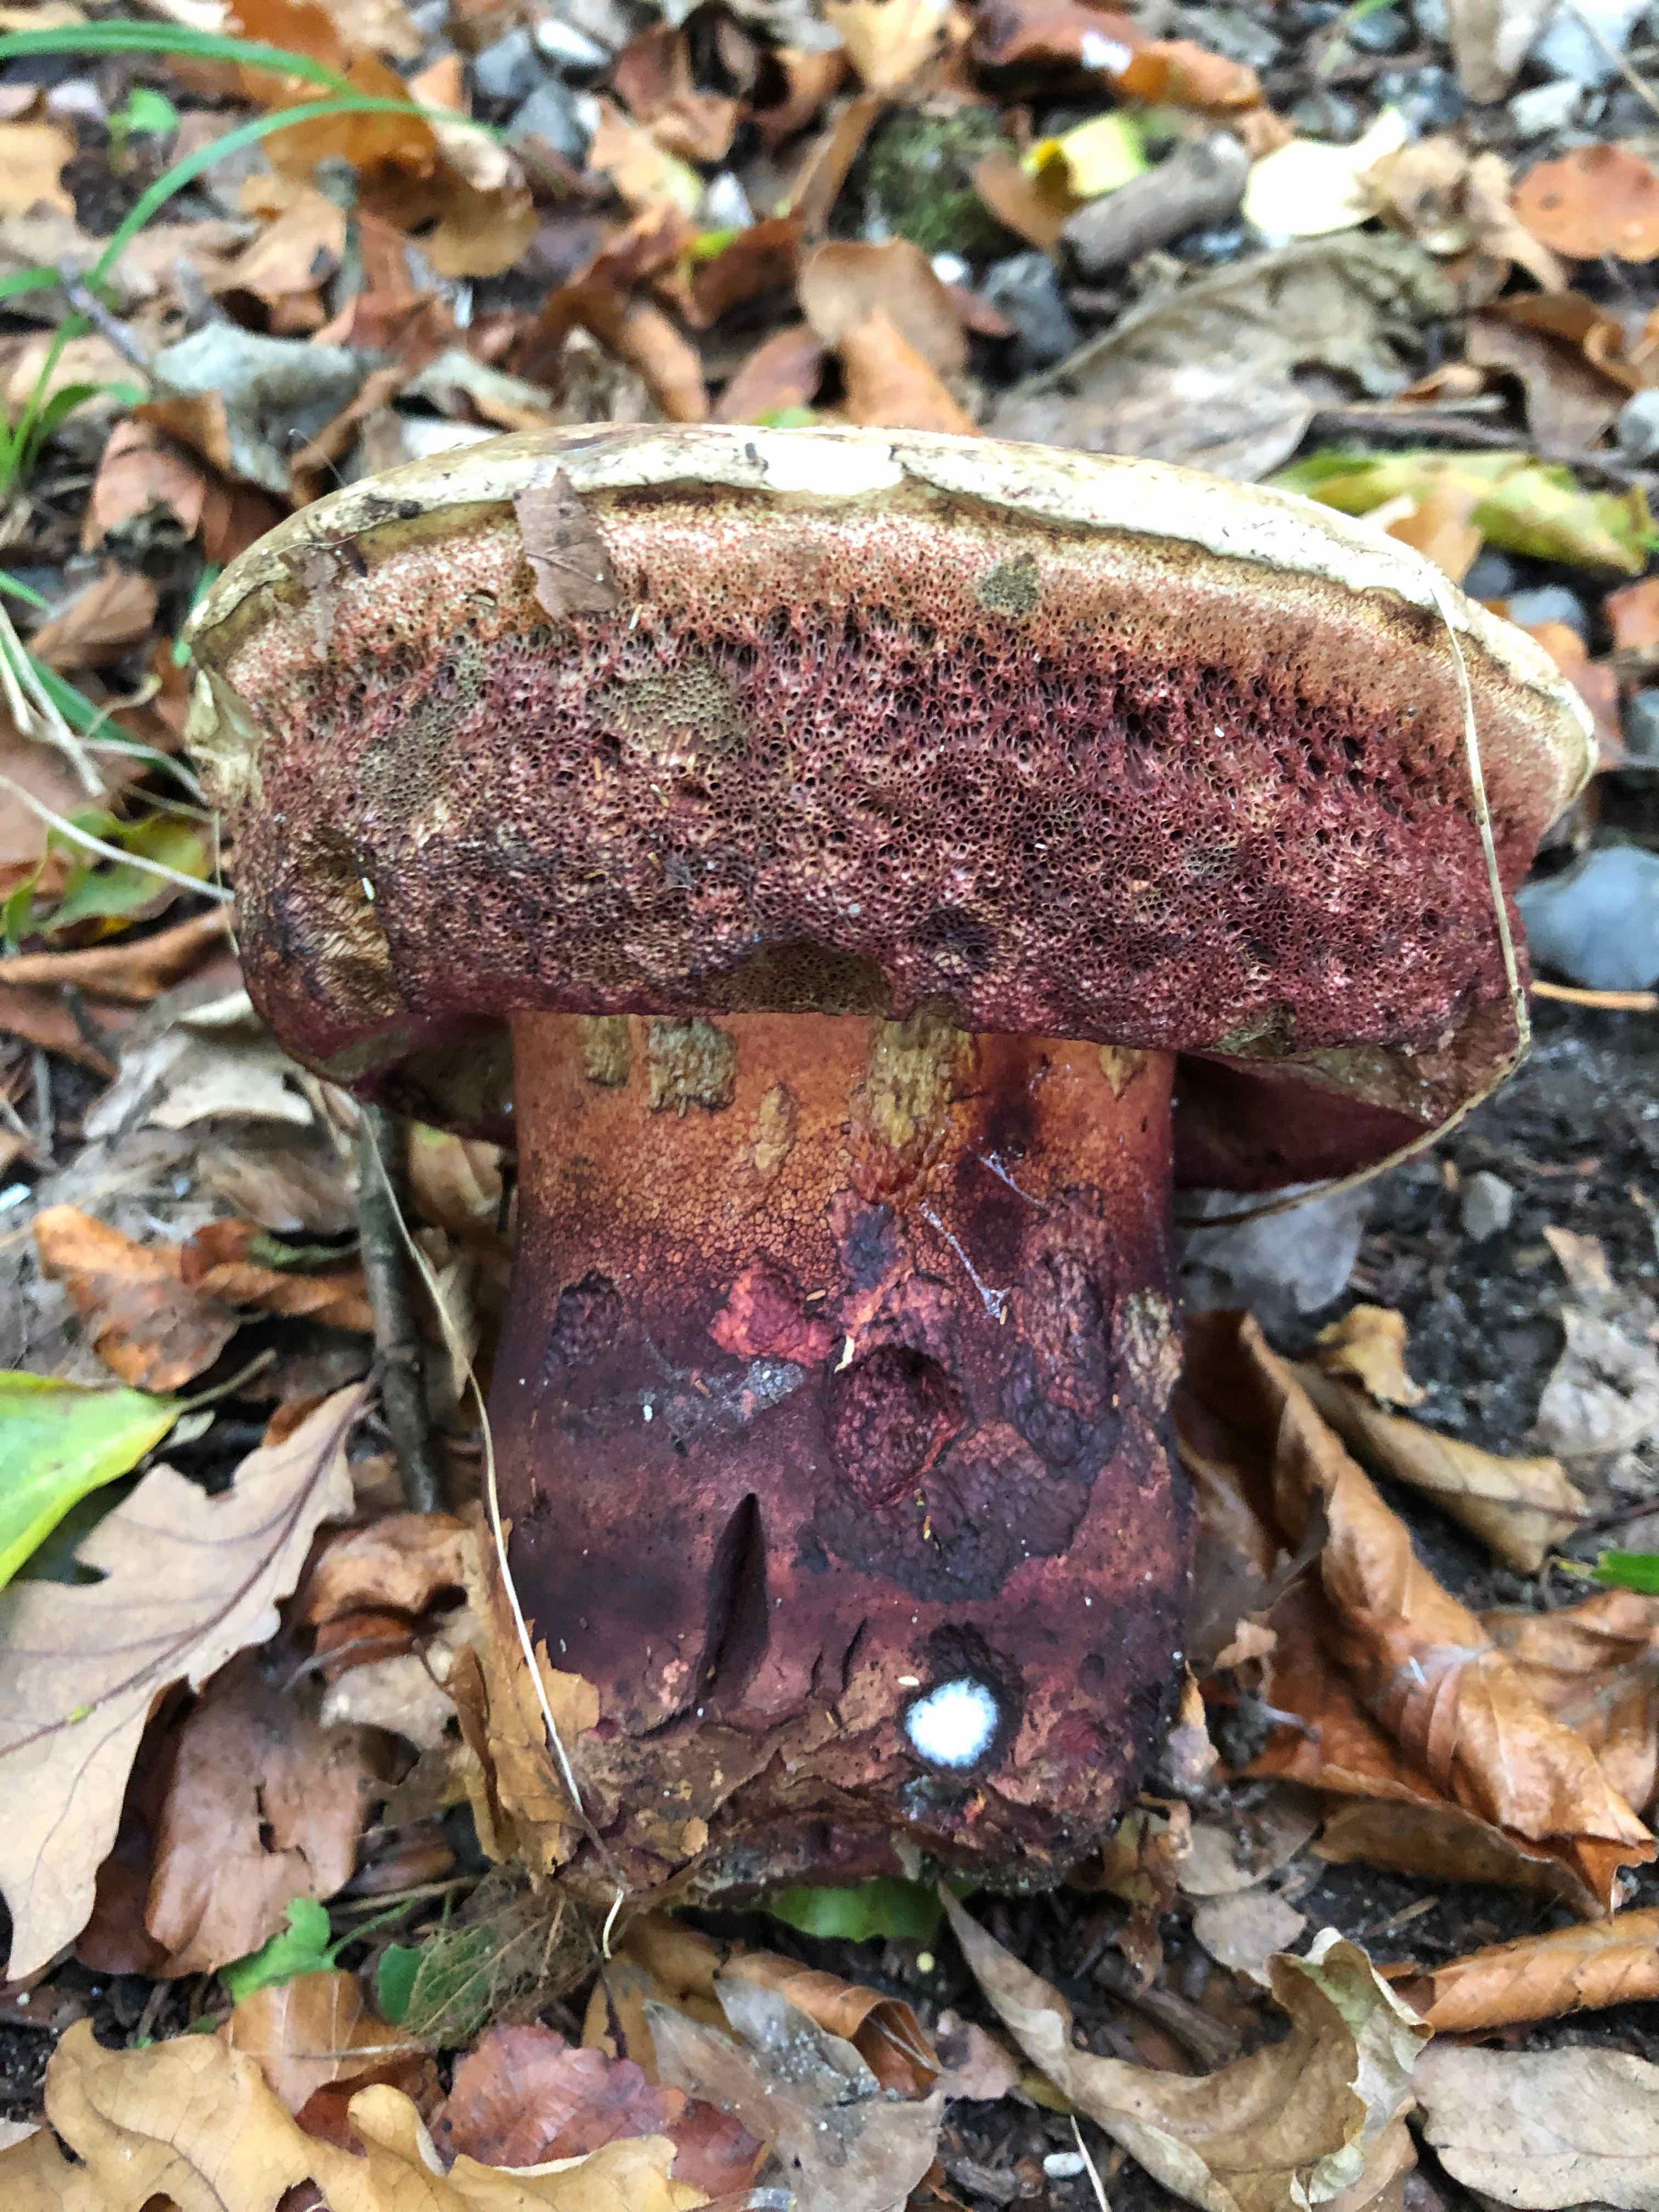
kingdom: Fungi
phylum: Basidiomycota
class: Agaricomycetes
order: Boletales
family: Boletaceae
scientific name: Boletaceae
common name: rørhatfamilien
